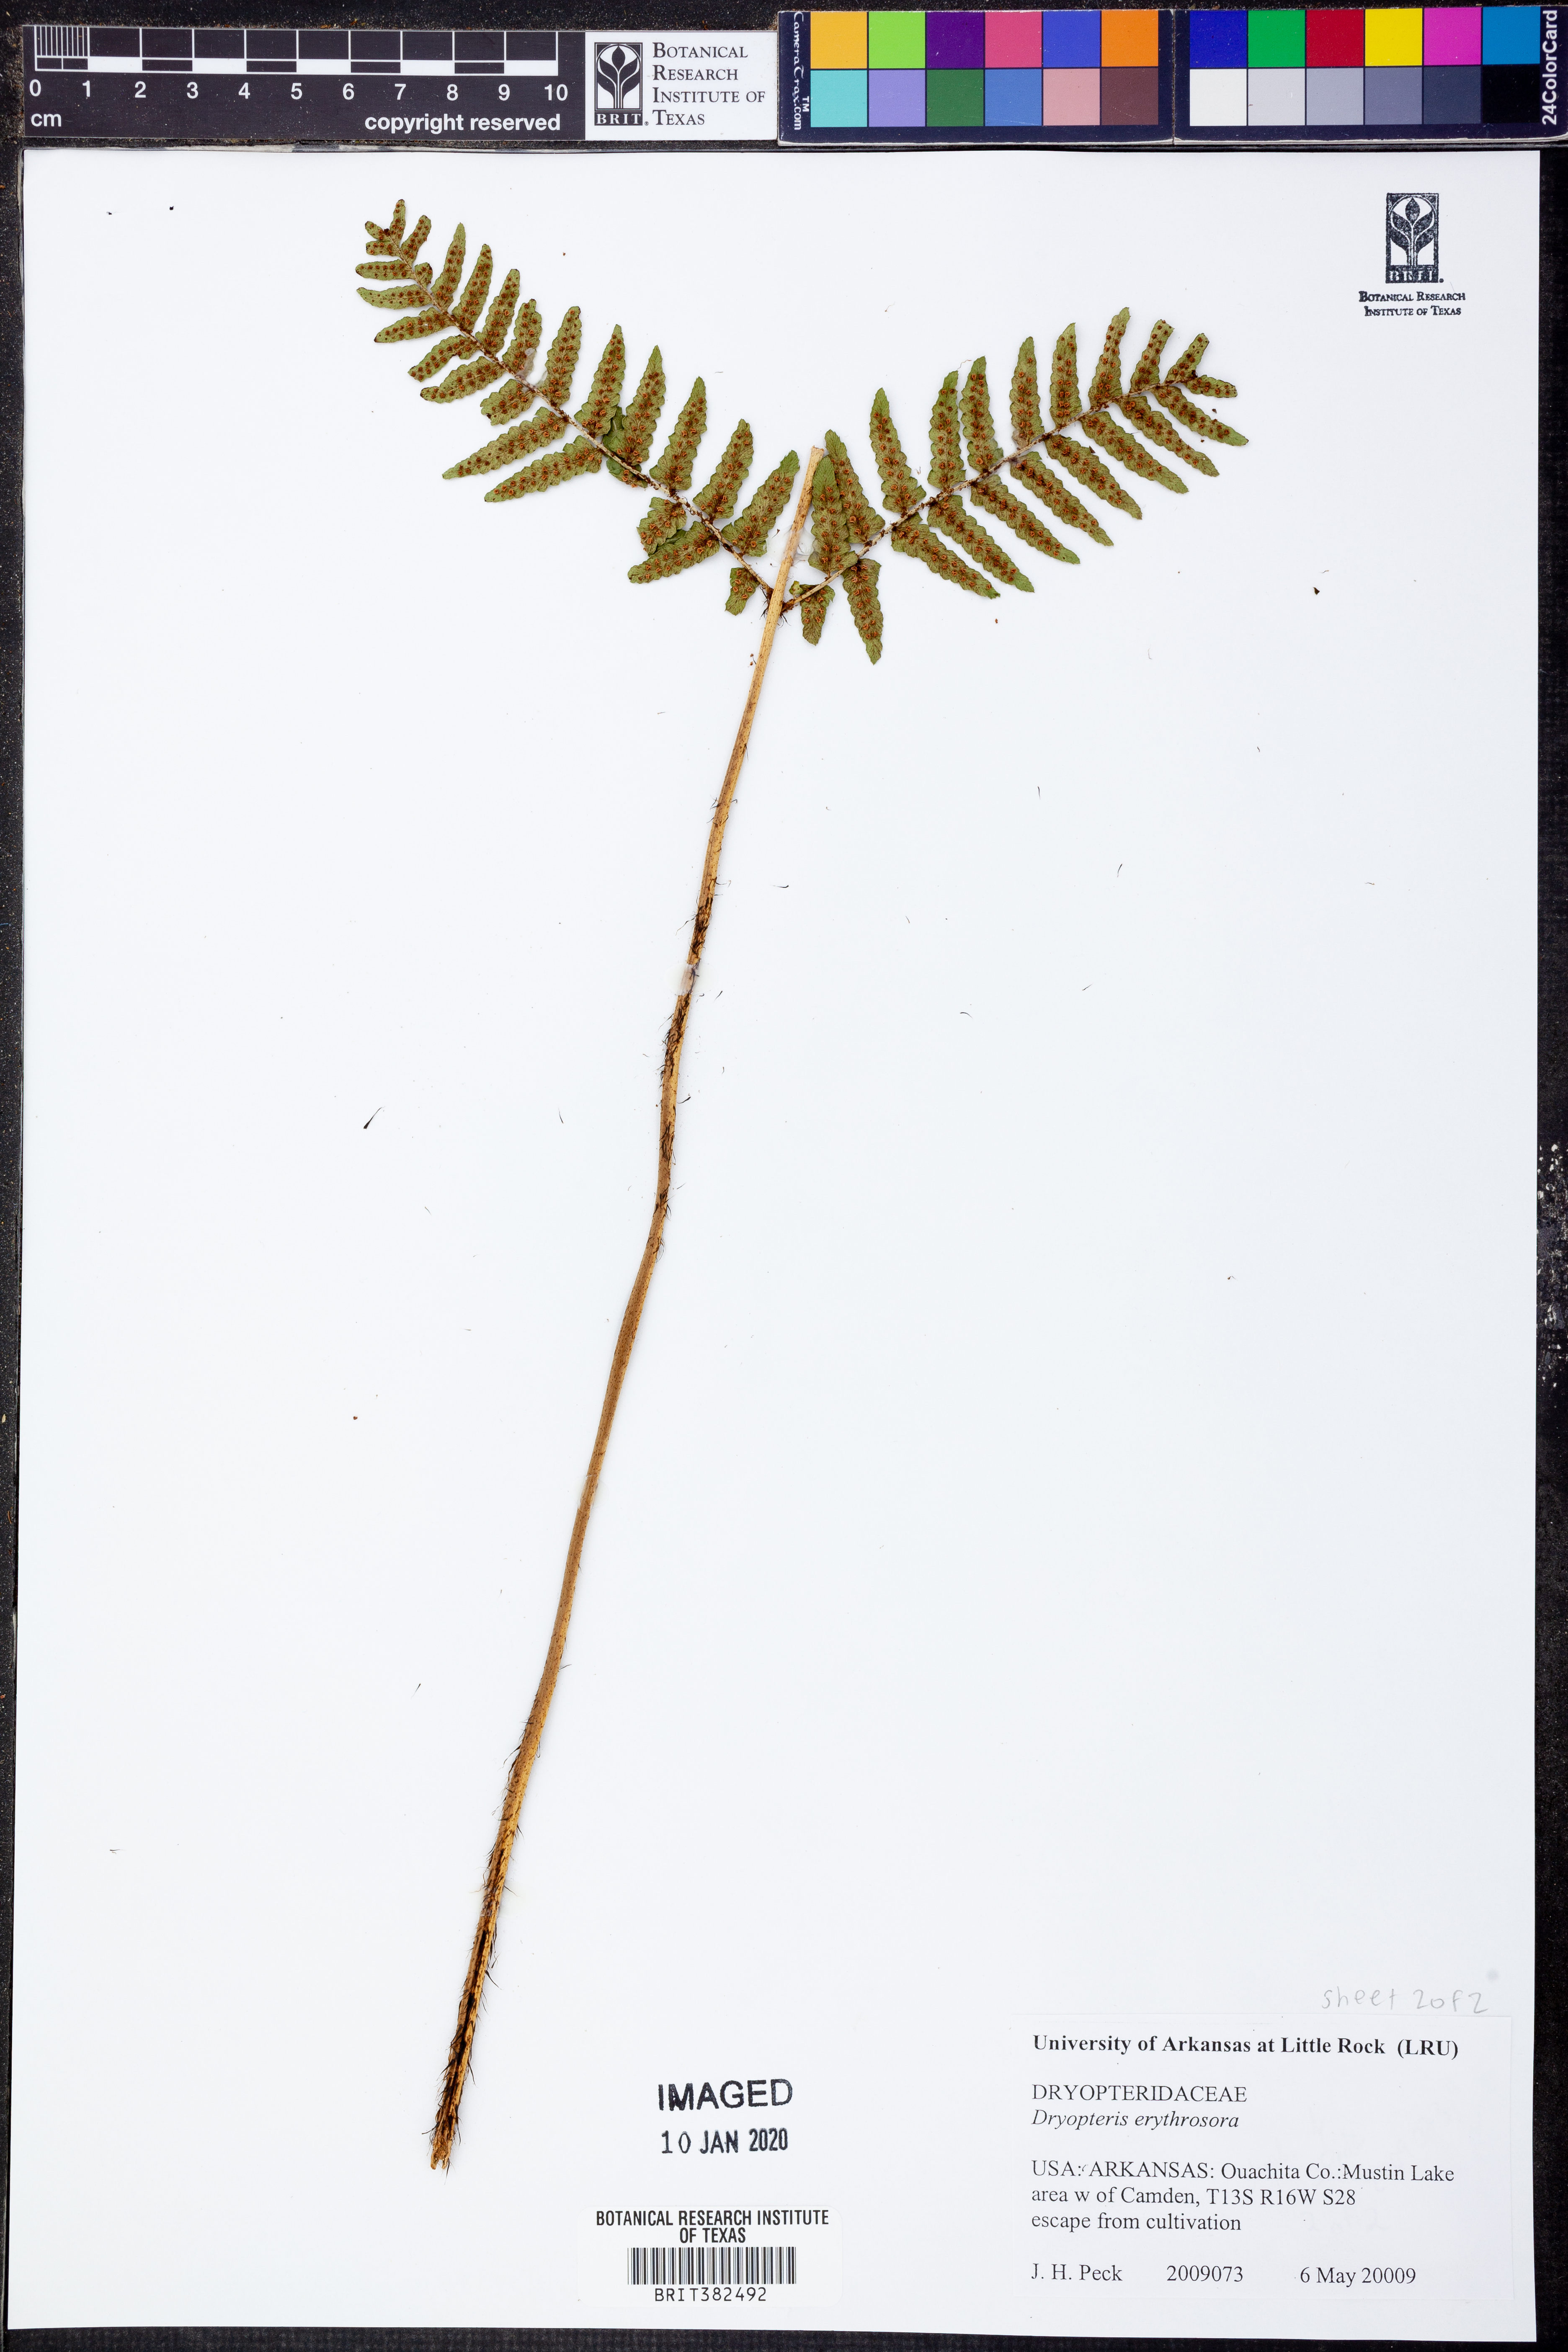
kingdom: Plantae
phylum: Tracheophyta
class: Polypodiopsida
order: Polypodiales
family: Dryopteridaceae
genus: Dryopteris
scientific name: Dryopteris erythrosora
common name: Autumn fern
